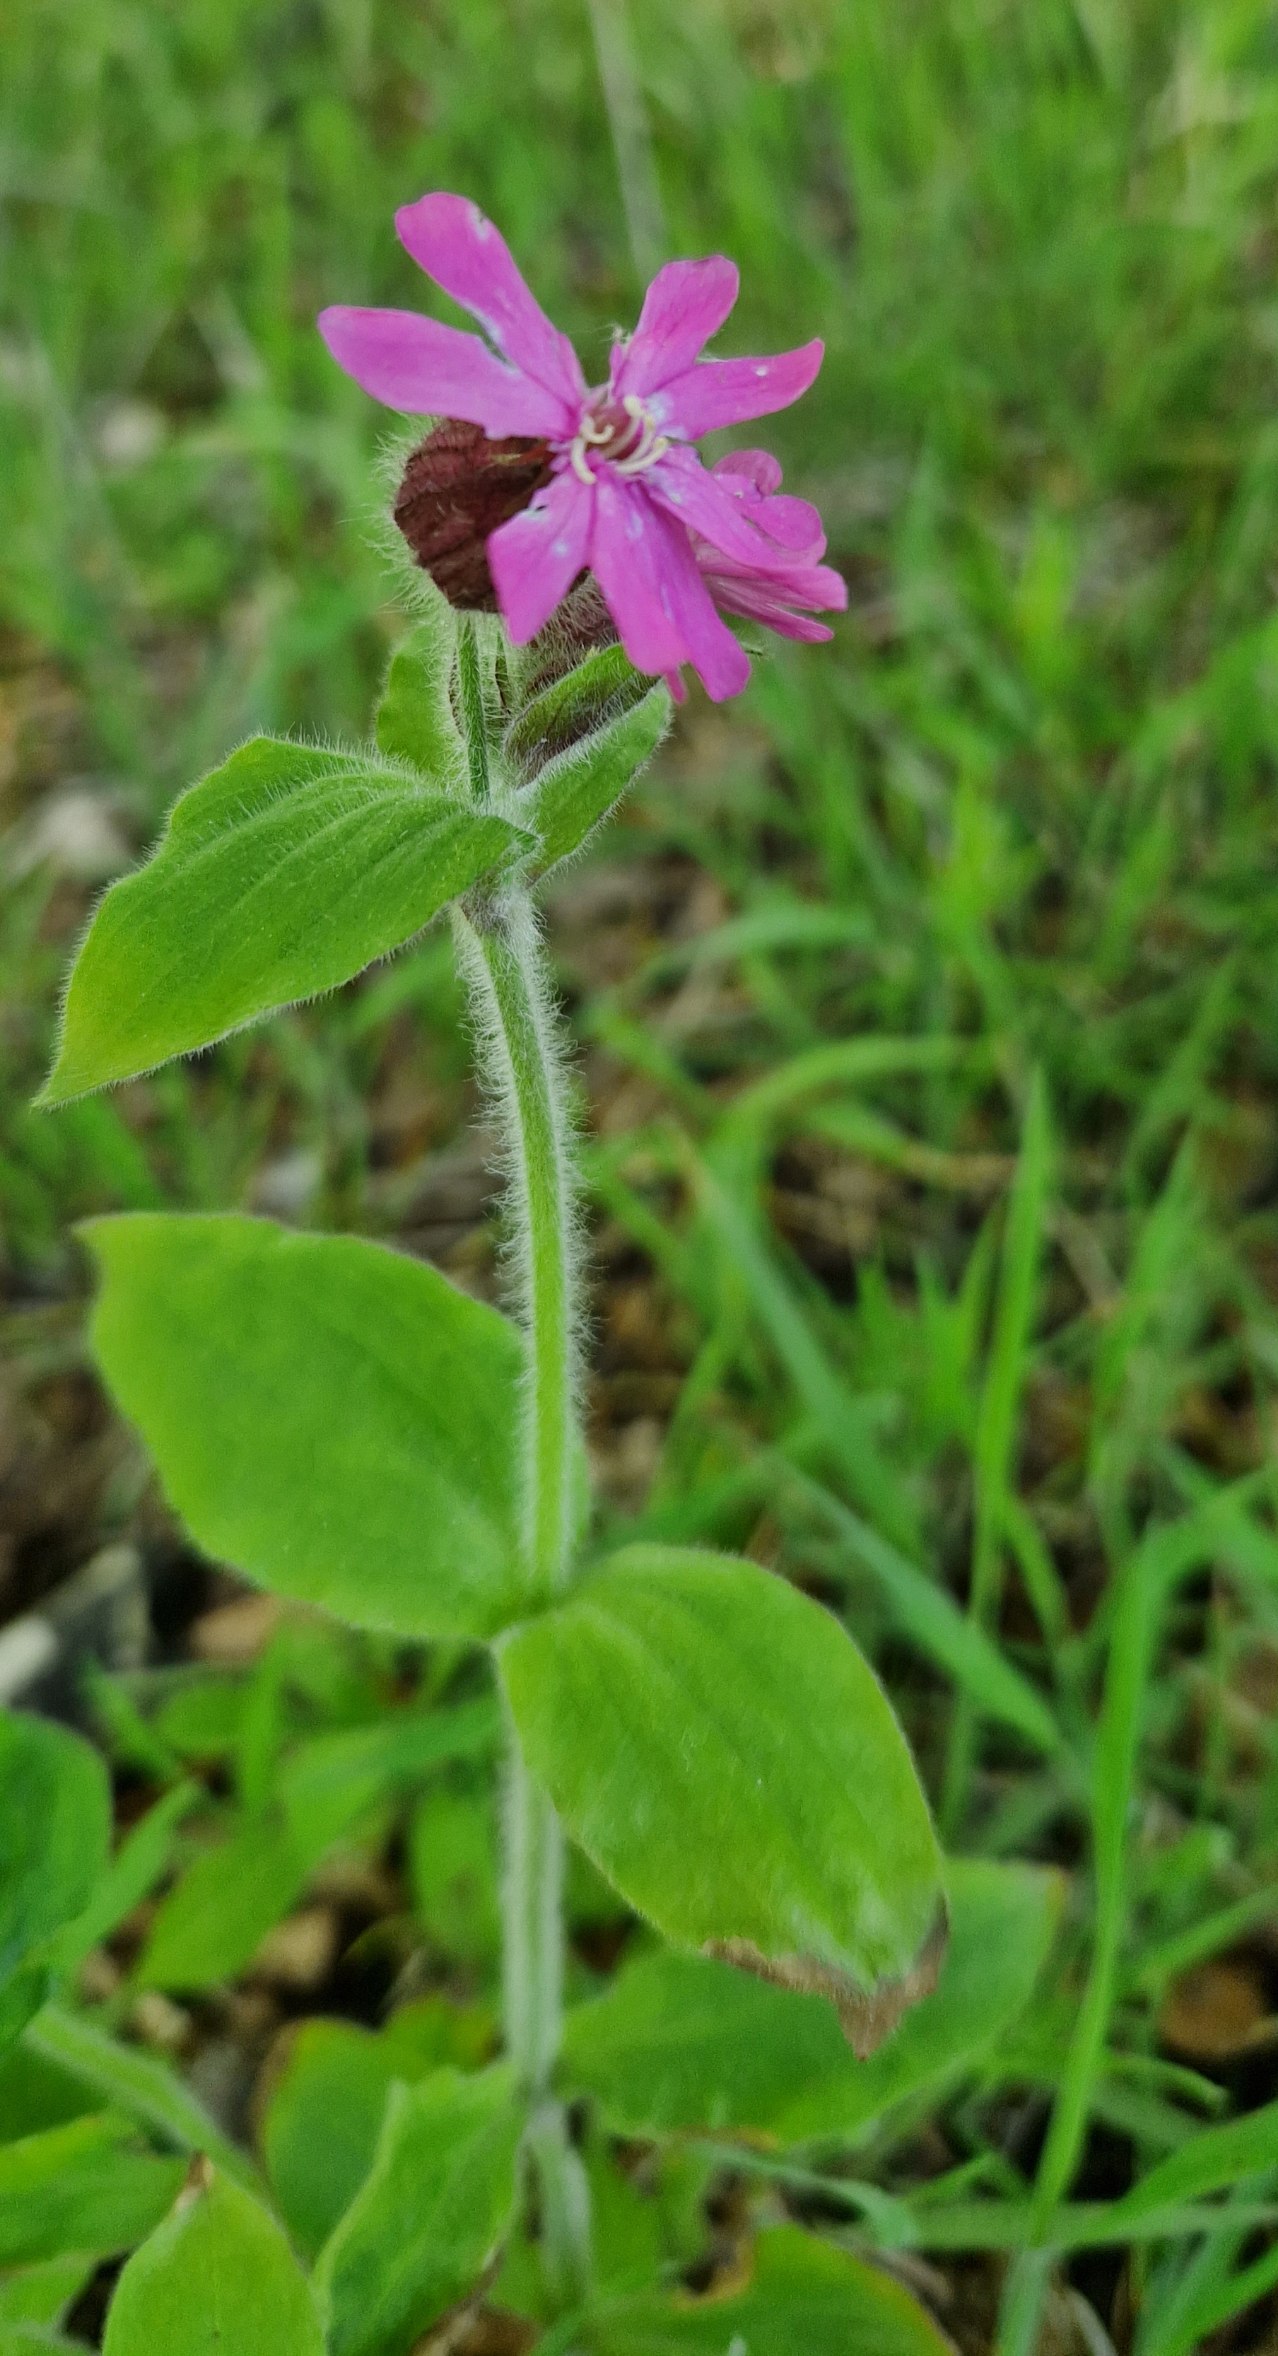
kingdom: Plantae
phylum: Tracheophyta
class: Magnoliopsida
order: Caryophyllales
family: Caryophyllaceae
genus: Silene
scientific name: Silene dioica
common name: Dagpragtstjerne
